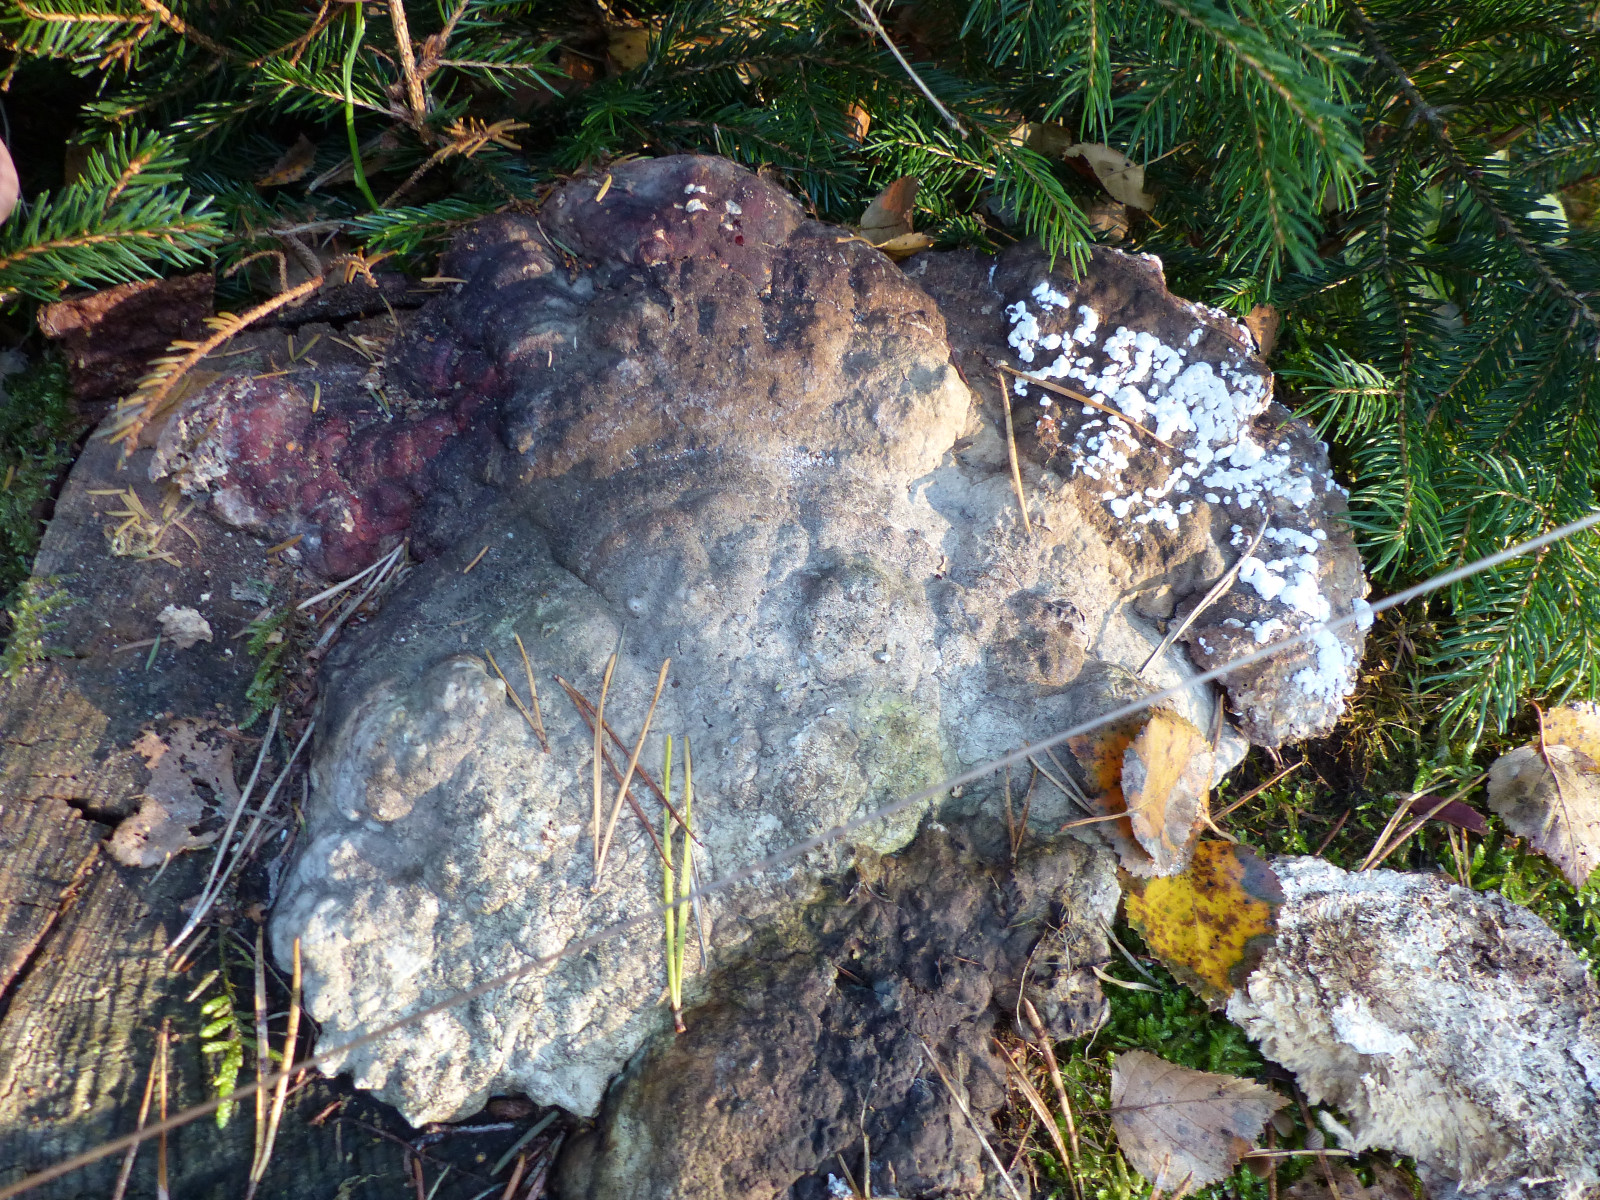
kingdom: Fungi
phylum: Ascomycota
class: Sordariomycetes
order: Hypocreales
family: Hypocreaceae
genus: Trichoderma
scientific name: Trichoderma pulvinatum
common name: snyltende kødkerne
